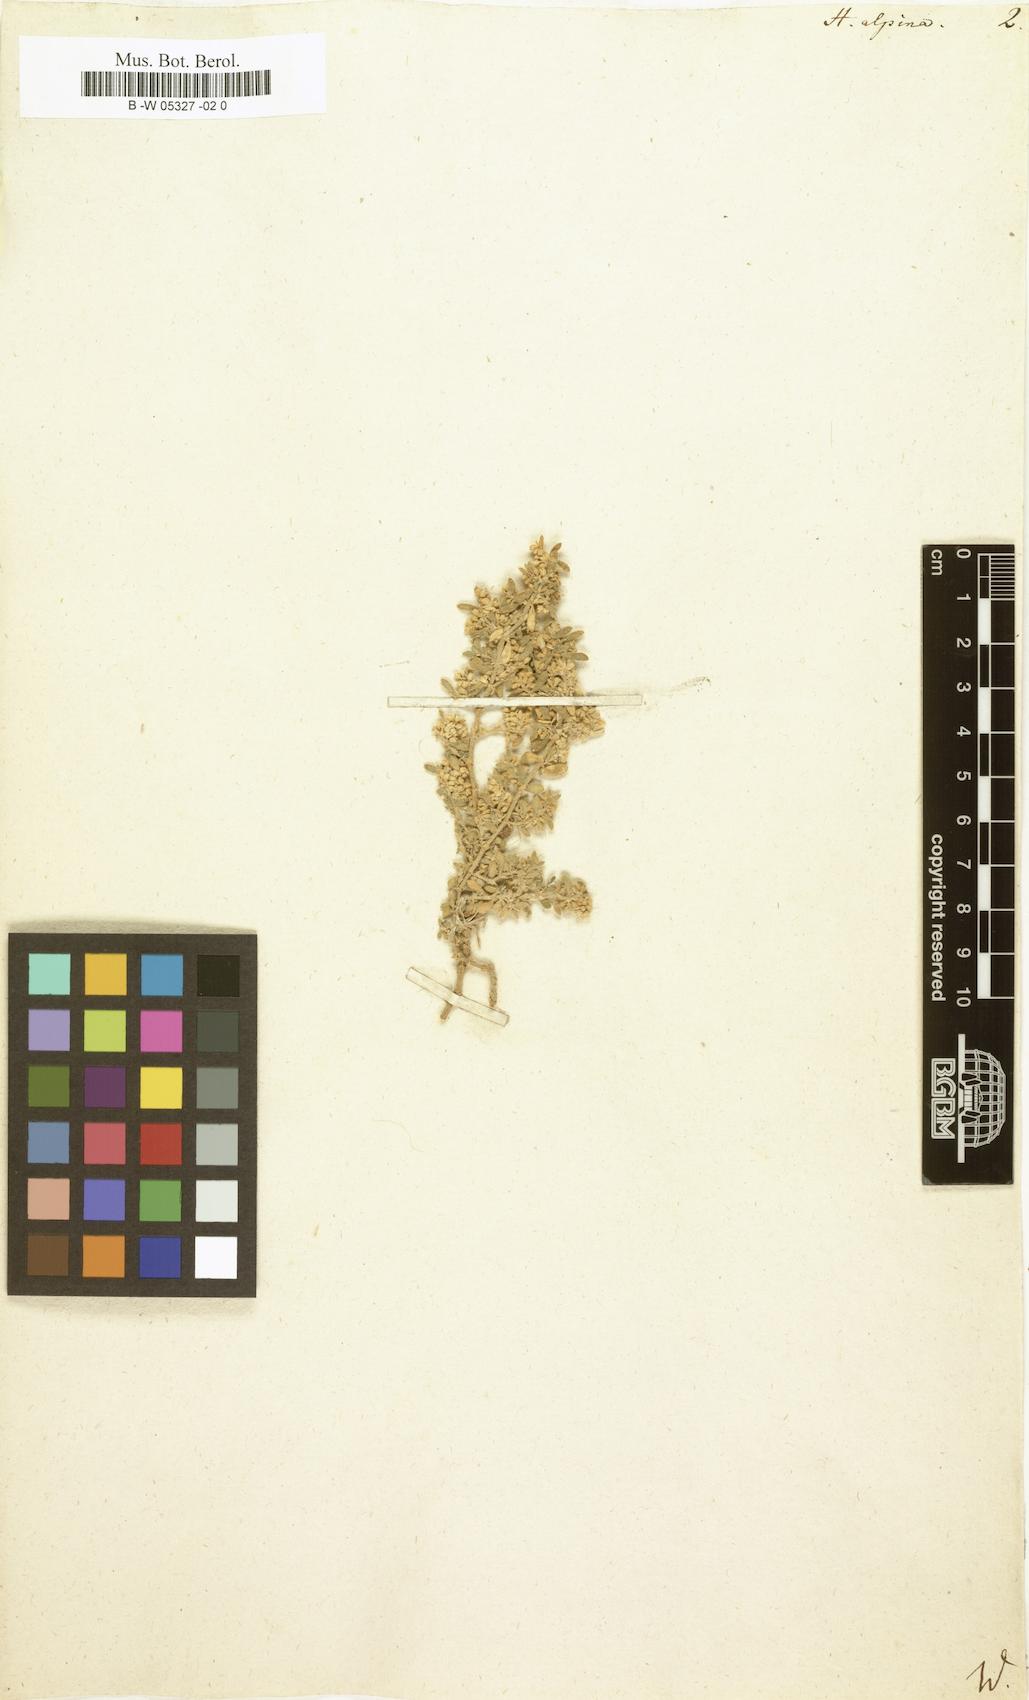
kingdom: Plantae
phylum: Tracheophyta
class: Magnoliopsida
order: Caryophyllales
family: Caryophyllaceae
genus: Herniaria
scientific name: Herniaria alpina
